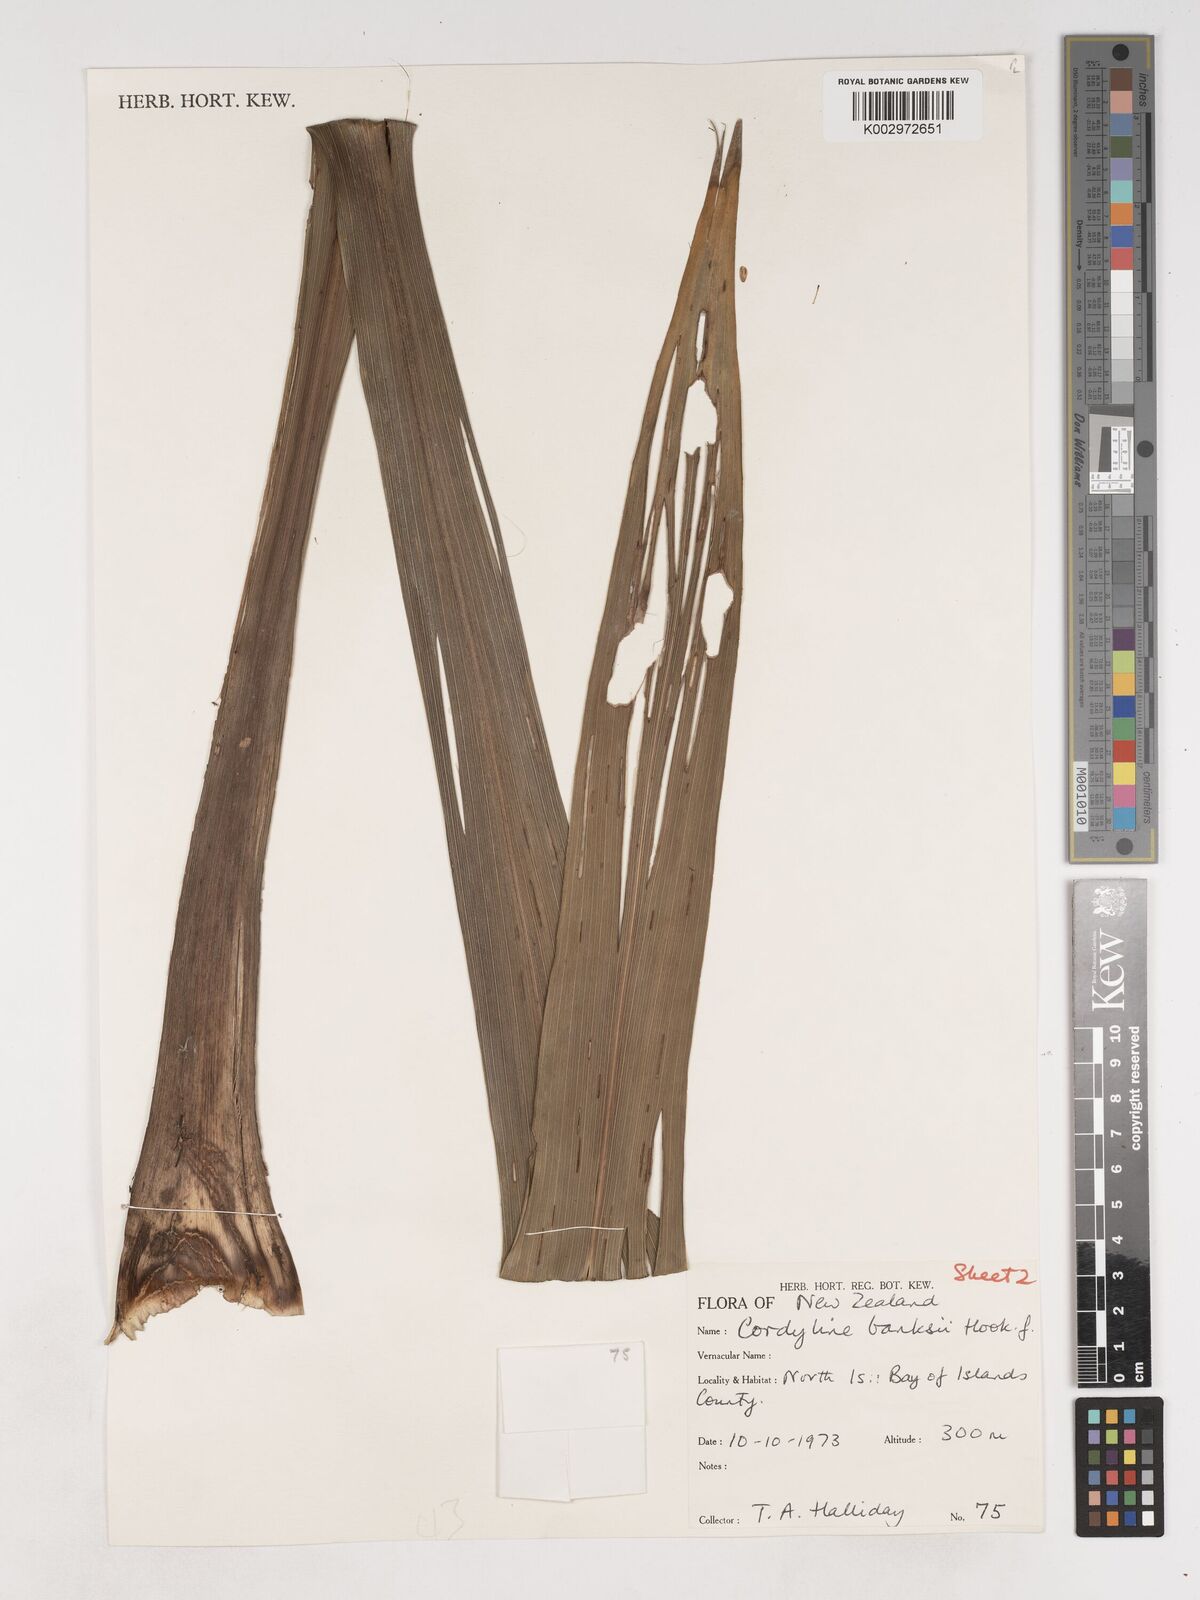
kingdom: Plantae
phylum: Tracheophyta
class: Liliopsida
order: Asparagales
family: Asparagaceae
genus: Cordyline
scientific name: Cordyline banksii
